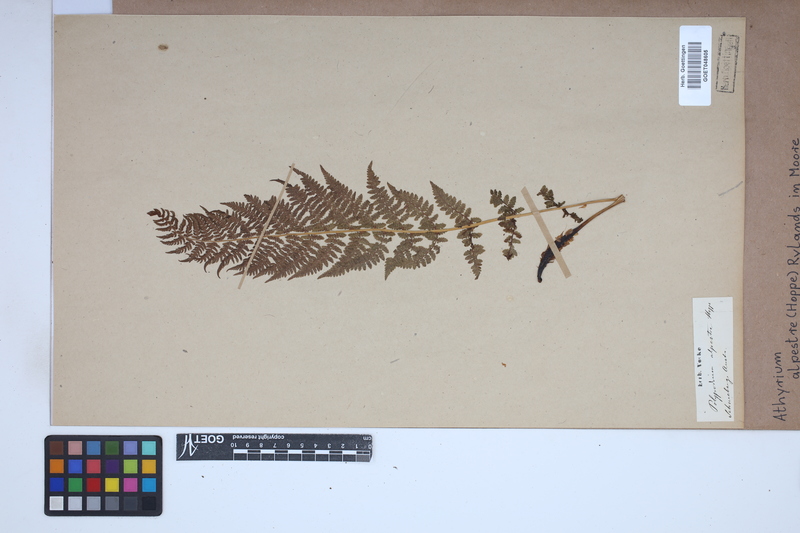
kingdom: Plantae
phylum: Tracheophyta
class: Polypodiopsida
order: Polypodiales
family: Athyriaceae
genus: Pseudathyrium
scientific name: Pseudathyrium alpestre
